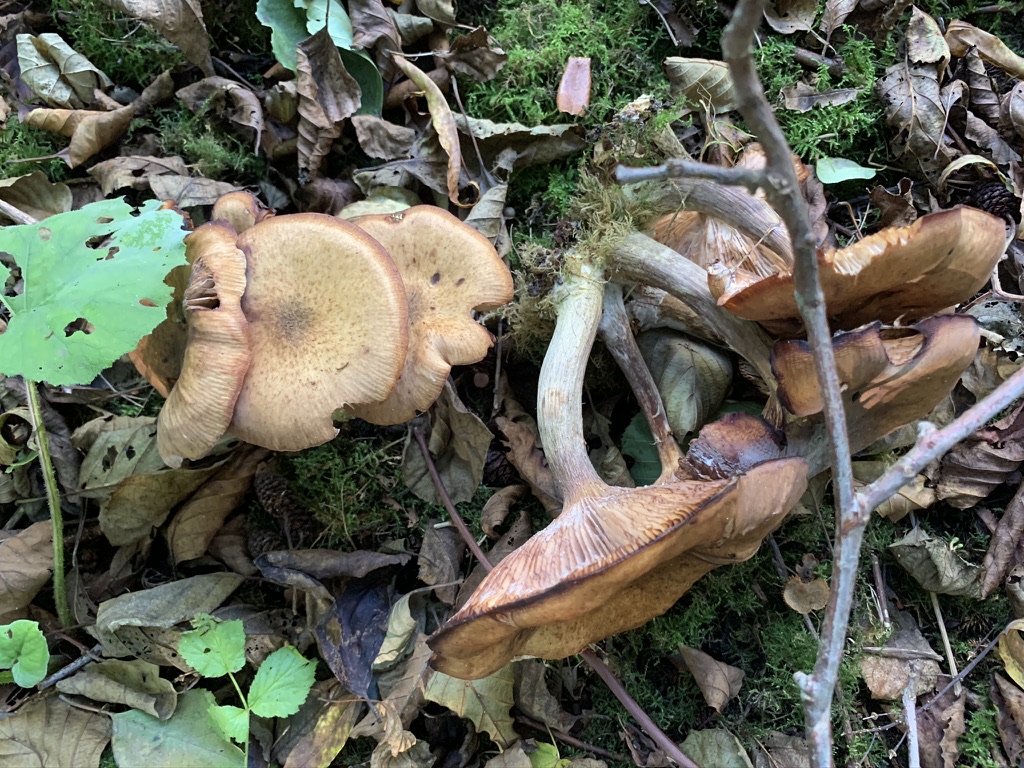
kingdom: Fungi
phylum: Basidiomycota
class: Agaricomycetes
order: Agaricales
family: Physalacriaceae
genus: Armillaria
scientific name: Armillaria lutea
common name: køllestokket honningsvamp
